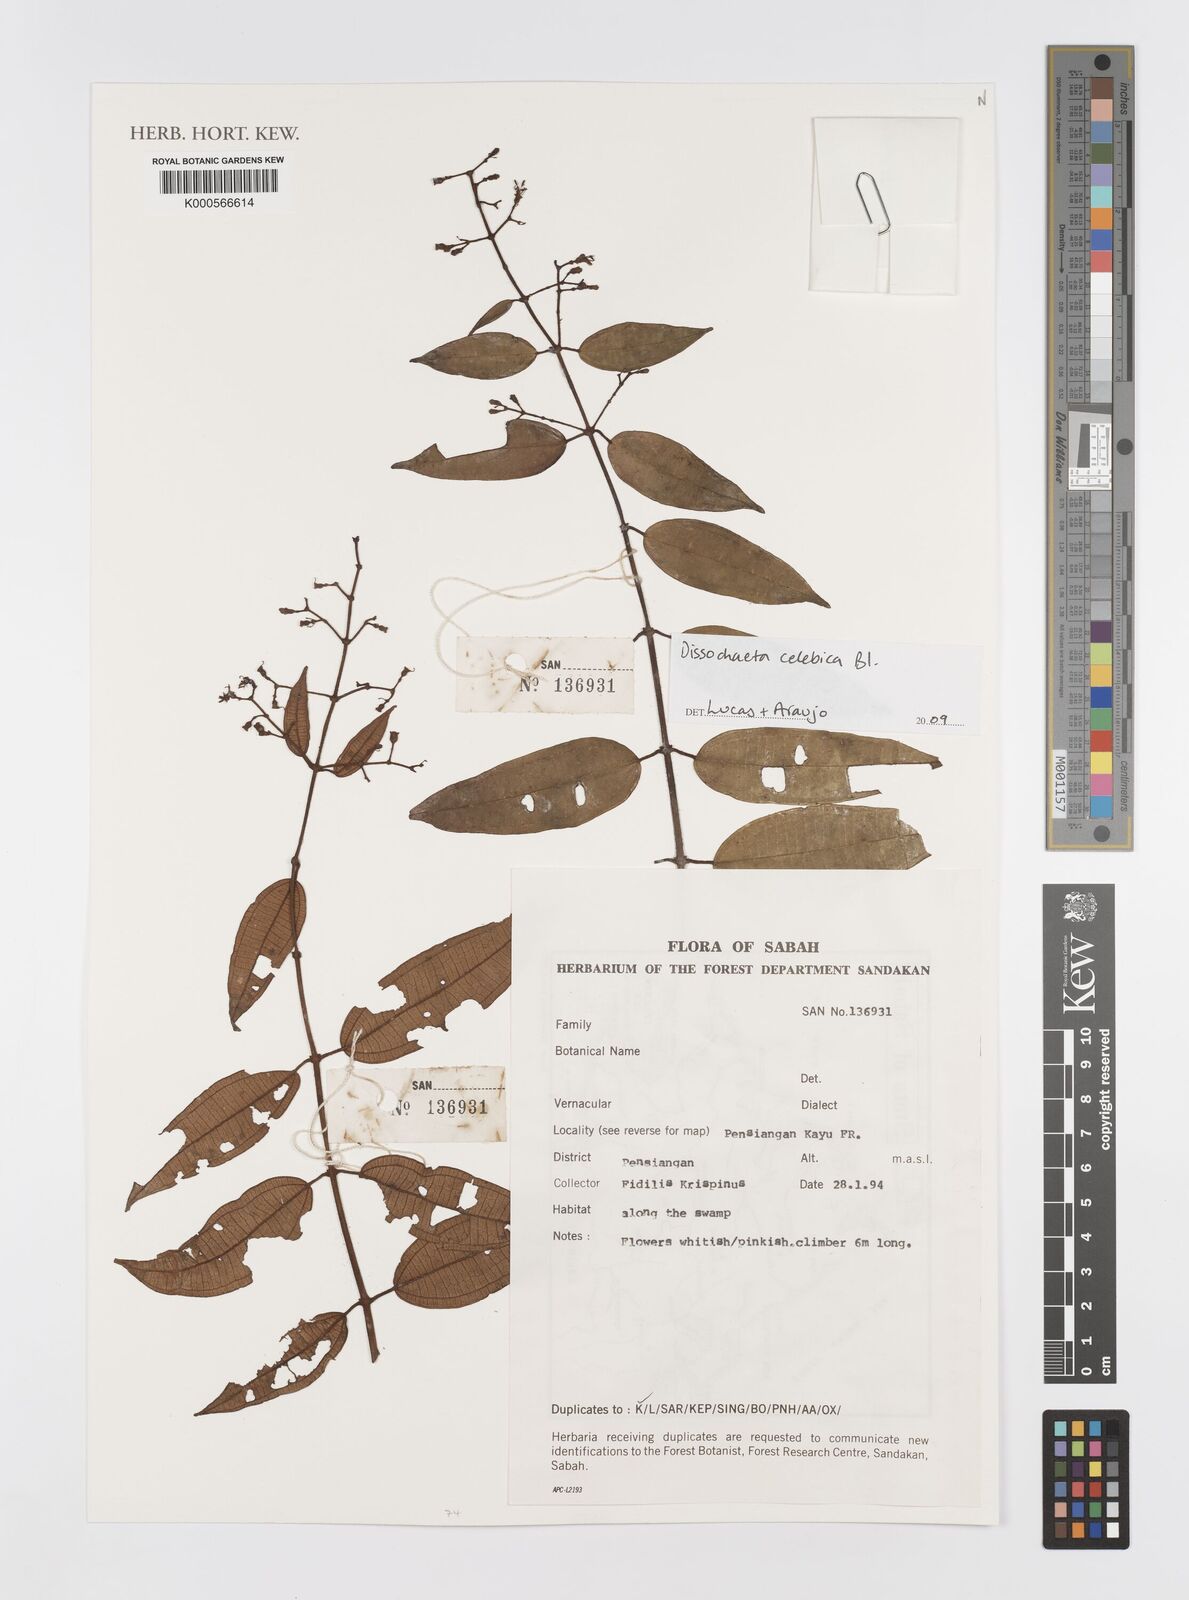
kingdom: Plantae
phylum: Tracheophyta
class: Magnoliopsida
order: Myrtales
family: Melastomataceae
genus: Dissochaeta
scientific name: Dissochaeta celebica
